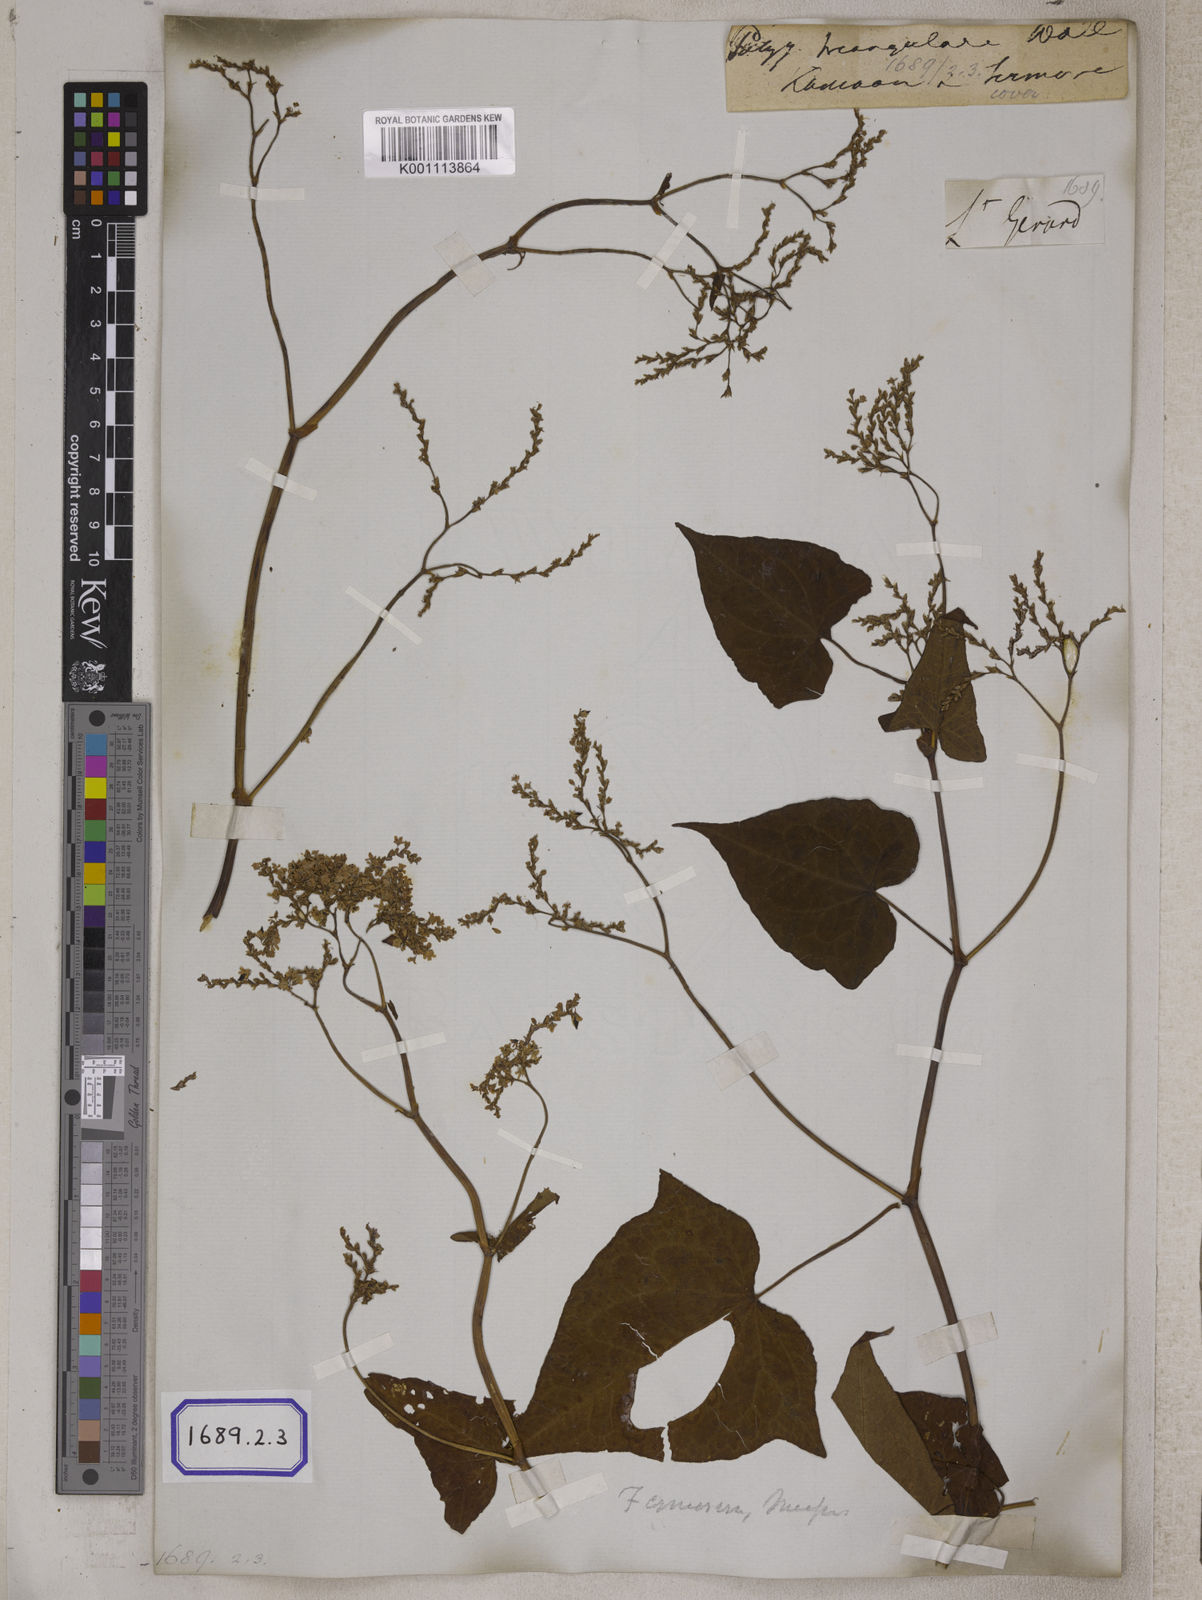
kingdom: Plantae
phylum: Tracheophyta
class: Magnoliopsida
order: Caryophyllales
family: Polygonaceae
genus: Fagopyrum
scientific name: Fagopyrum cymosum
